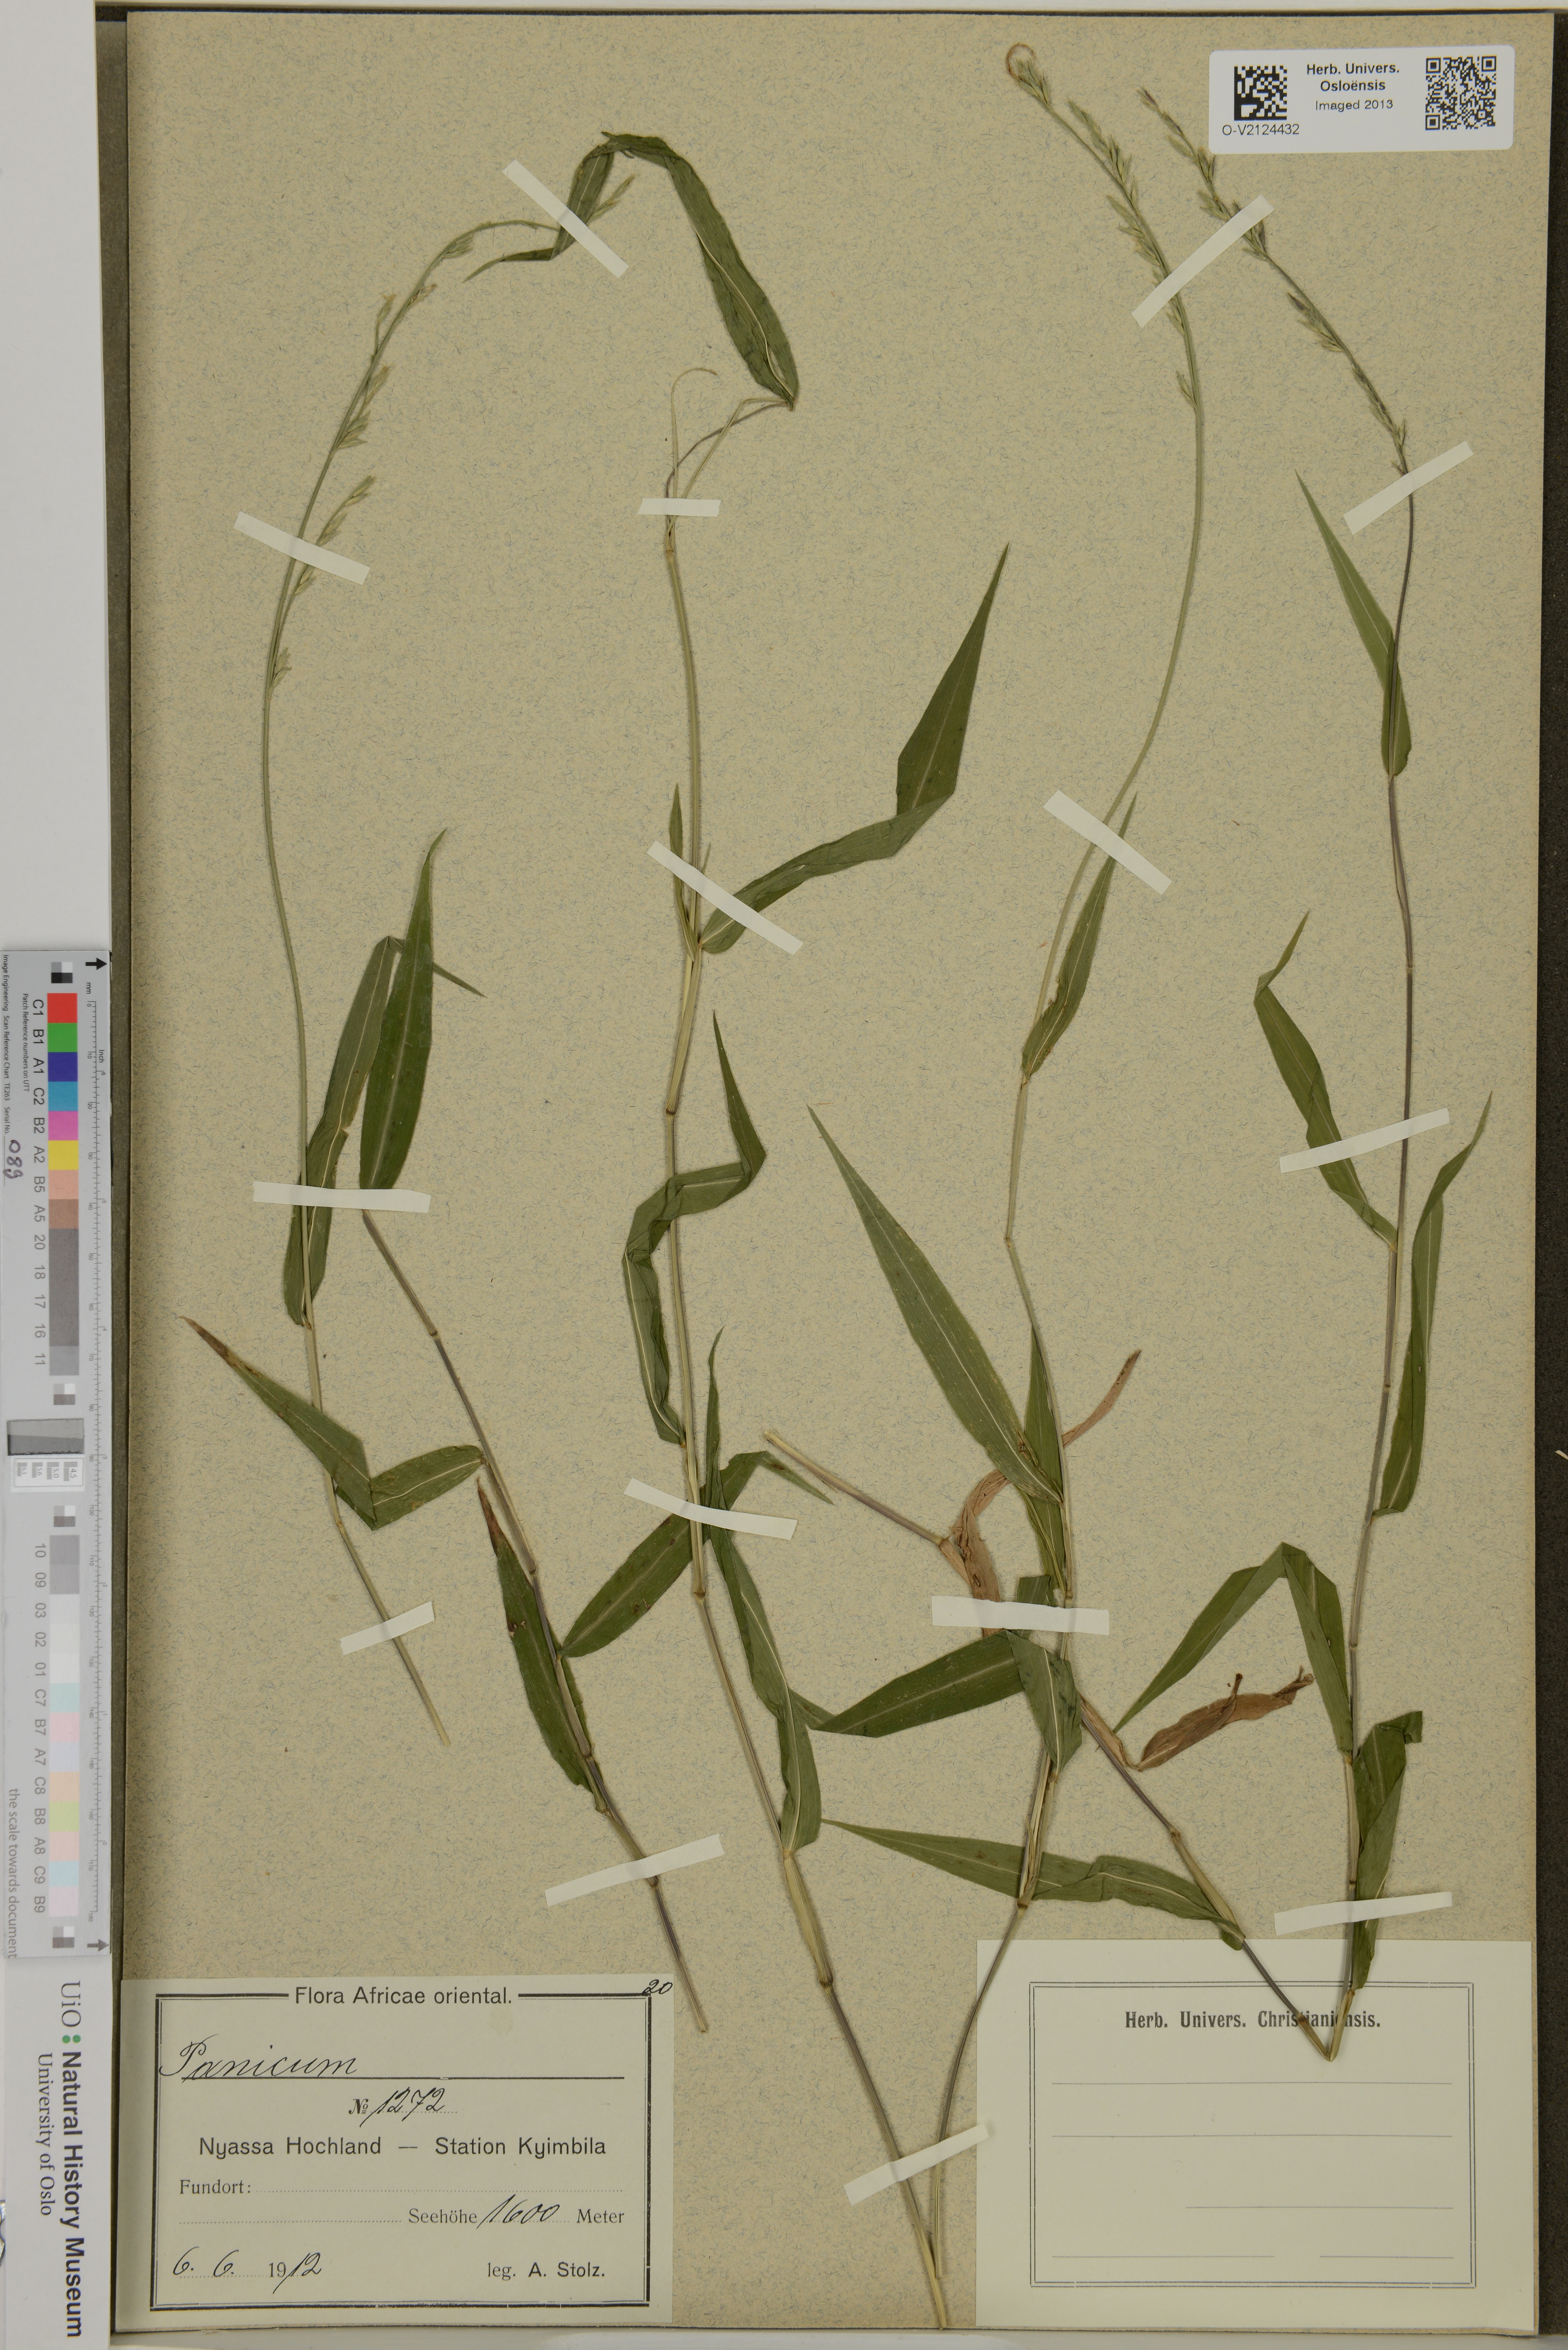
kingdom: Plantae
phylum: Tracheophyta
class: Liliopsida
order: Poales
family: Poaceae
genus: Panicum
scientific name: Panicum
